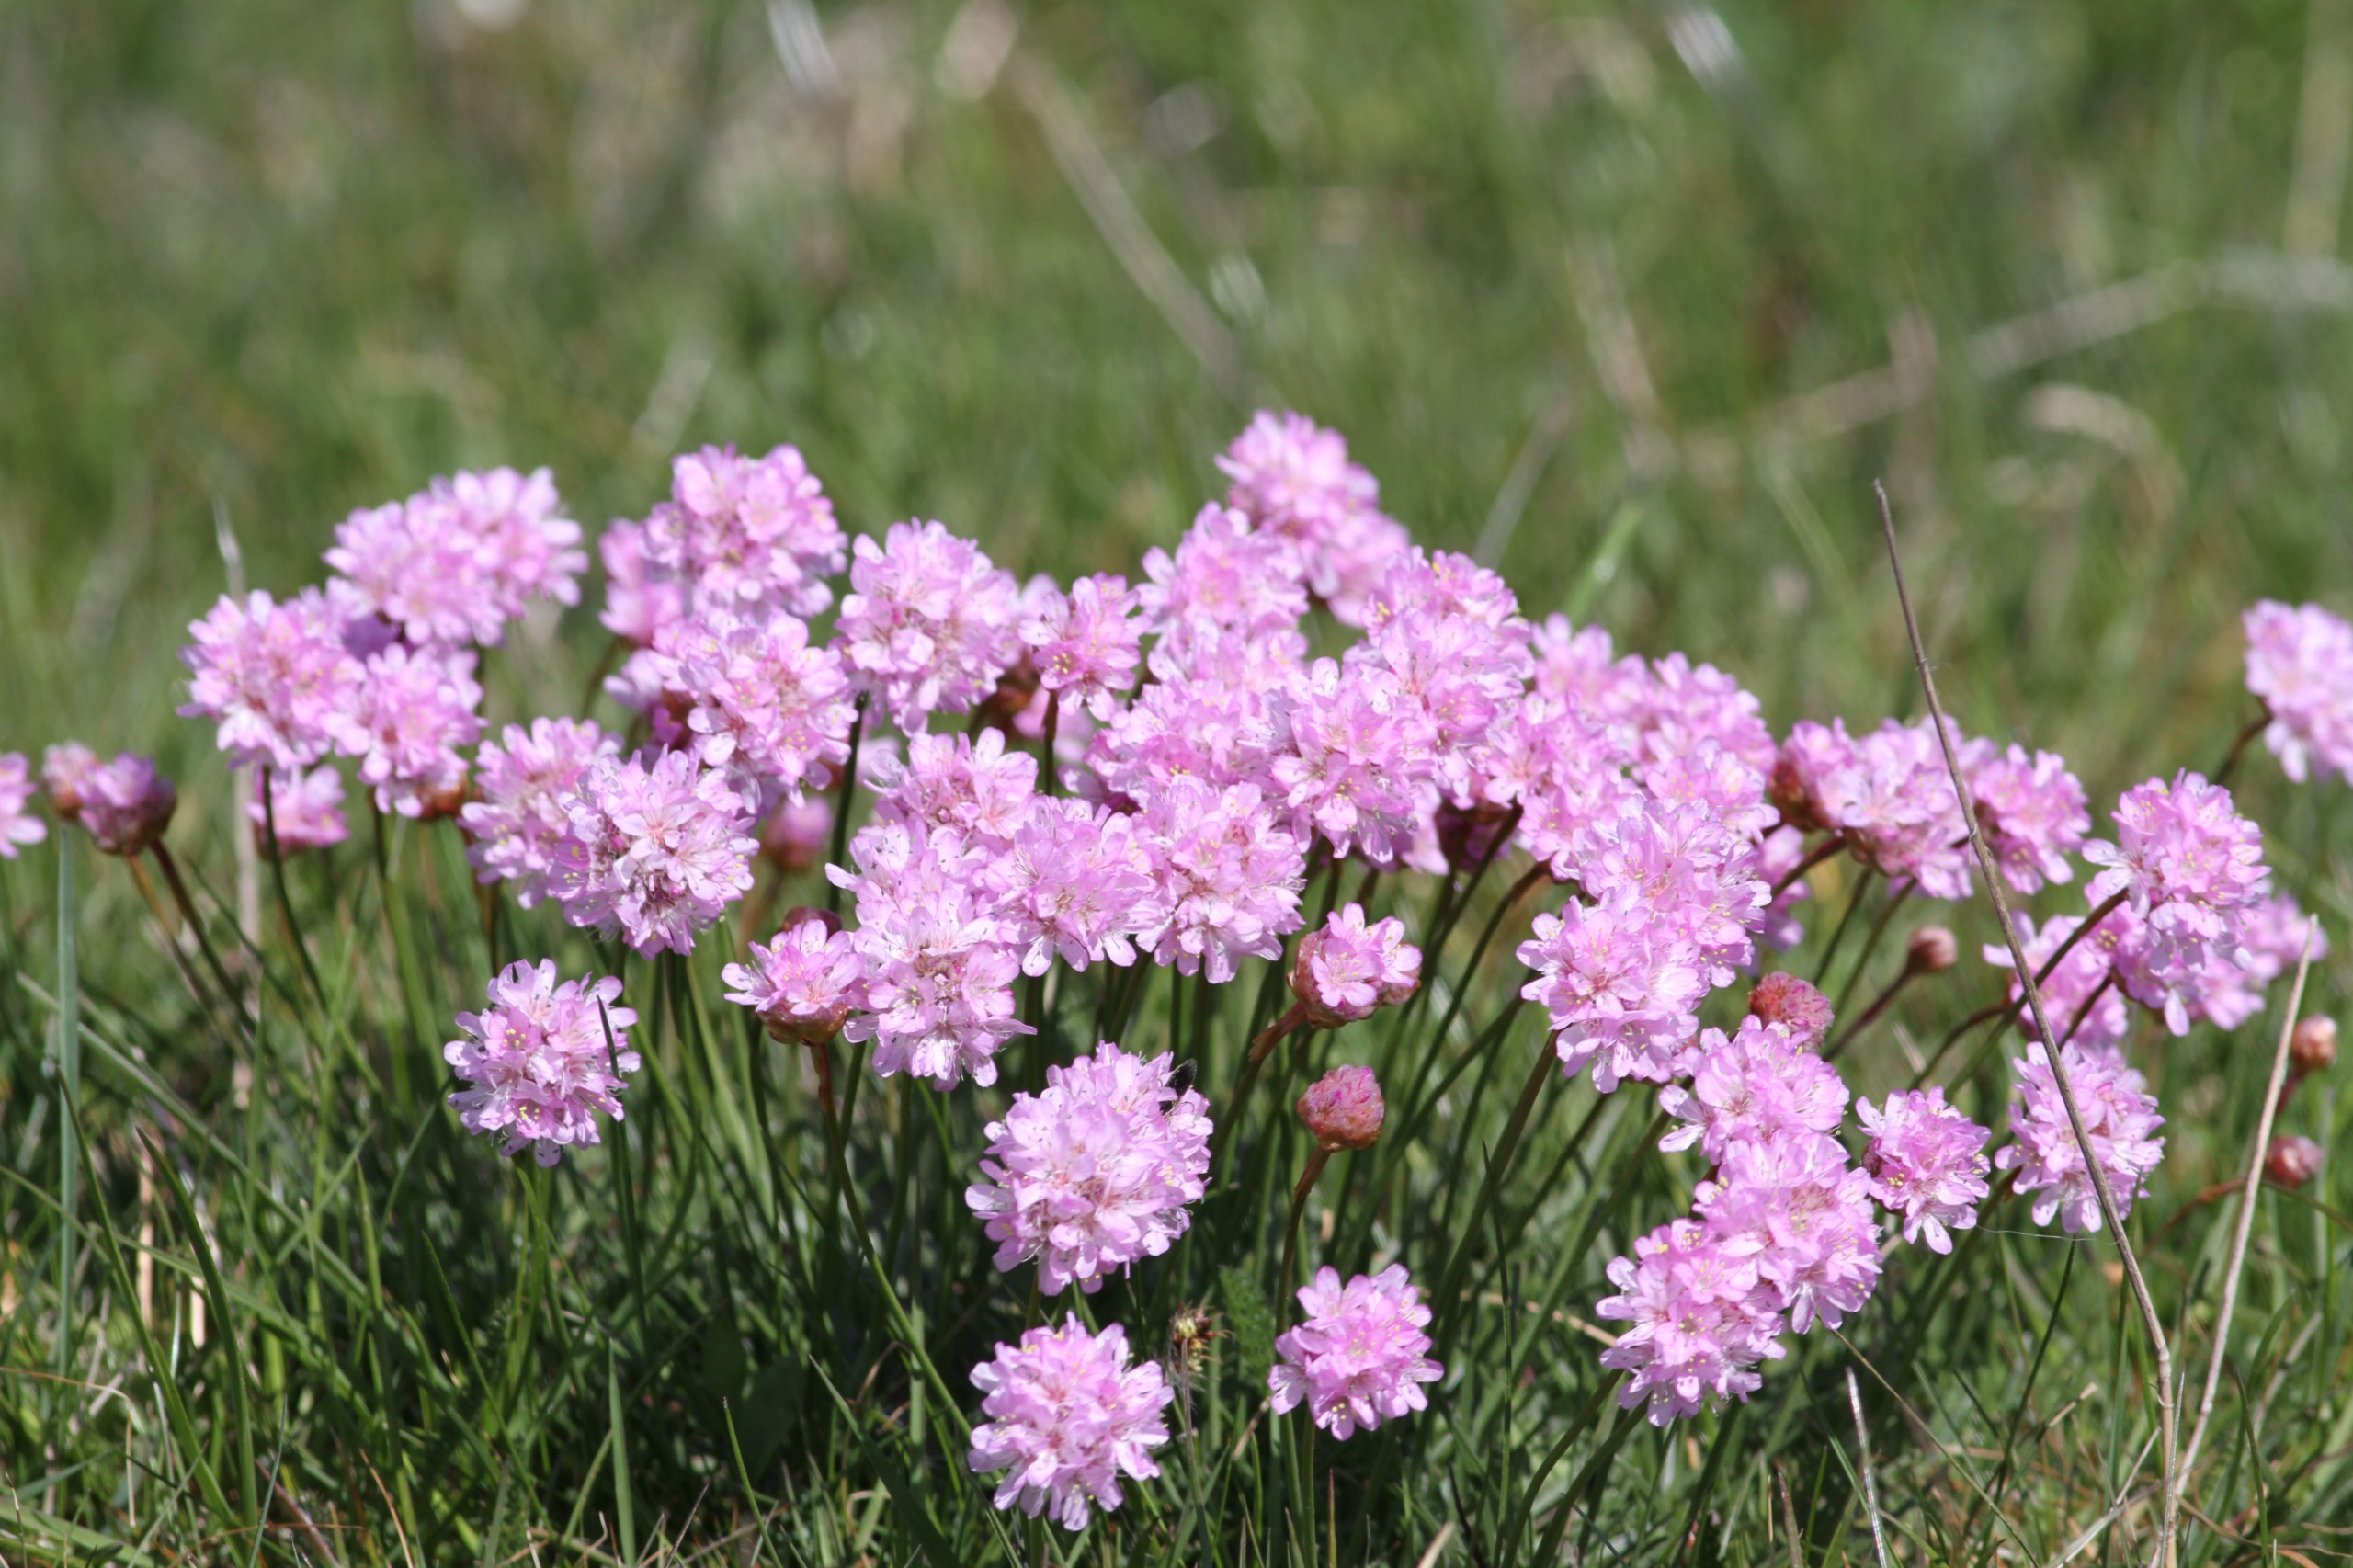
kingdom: Plantae
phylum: Tracheophyta
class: Magnoliopsida
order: Caryophyllales
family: Plumbaginaceae
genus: Armeria
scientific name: Armeria maritima
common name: Engelskgræs
